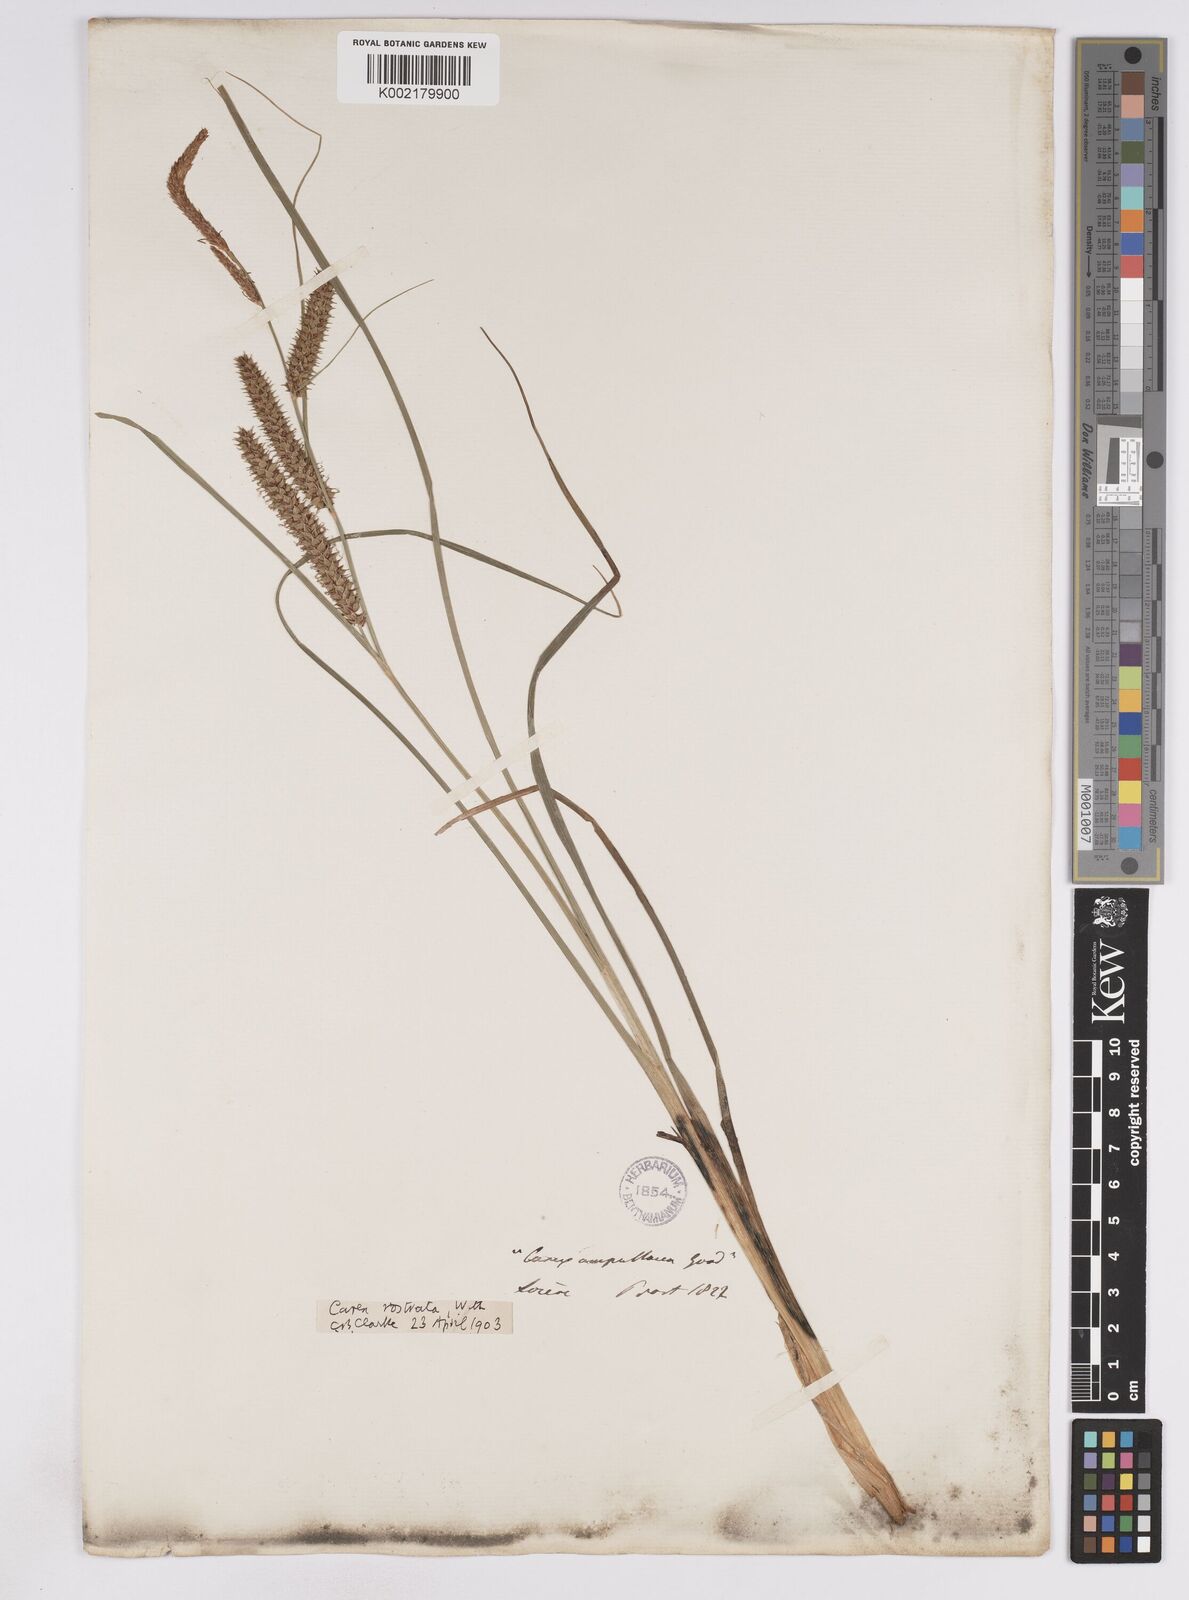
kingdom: Plantae
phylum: Tracheophyta
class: Liliopsida
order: Poales
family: Cyperaceae
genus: Carex
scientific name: Carex rostrata
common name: Bottle sedge
